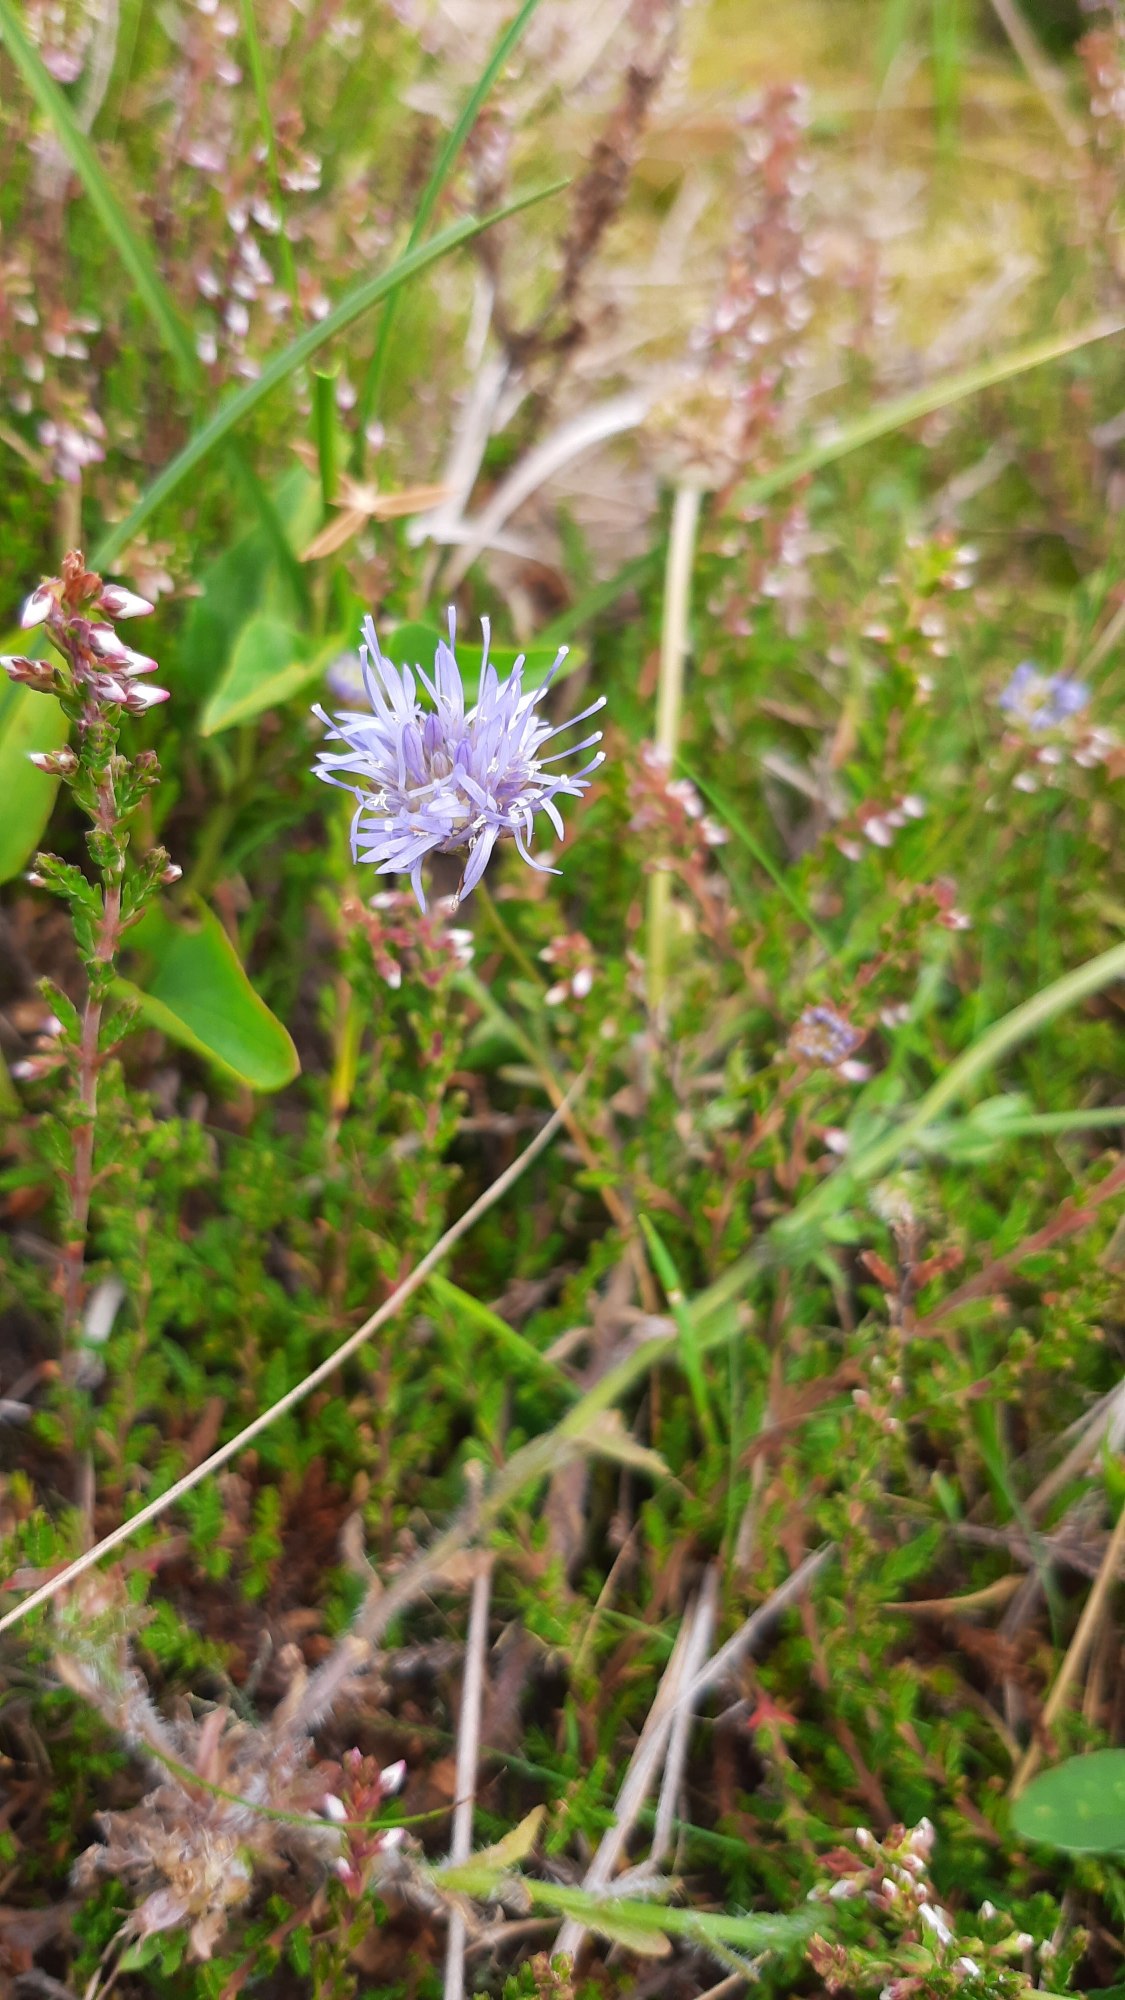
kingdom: Plantae
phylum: Tracheophyta
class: Magnoliopsida
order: Asterales
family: Campanulaceae
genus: Jasione
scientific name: Jasione montana
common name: Blåmunke
